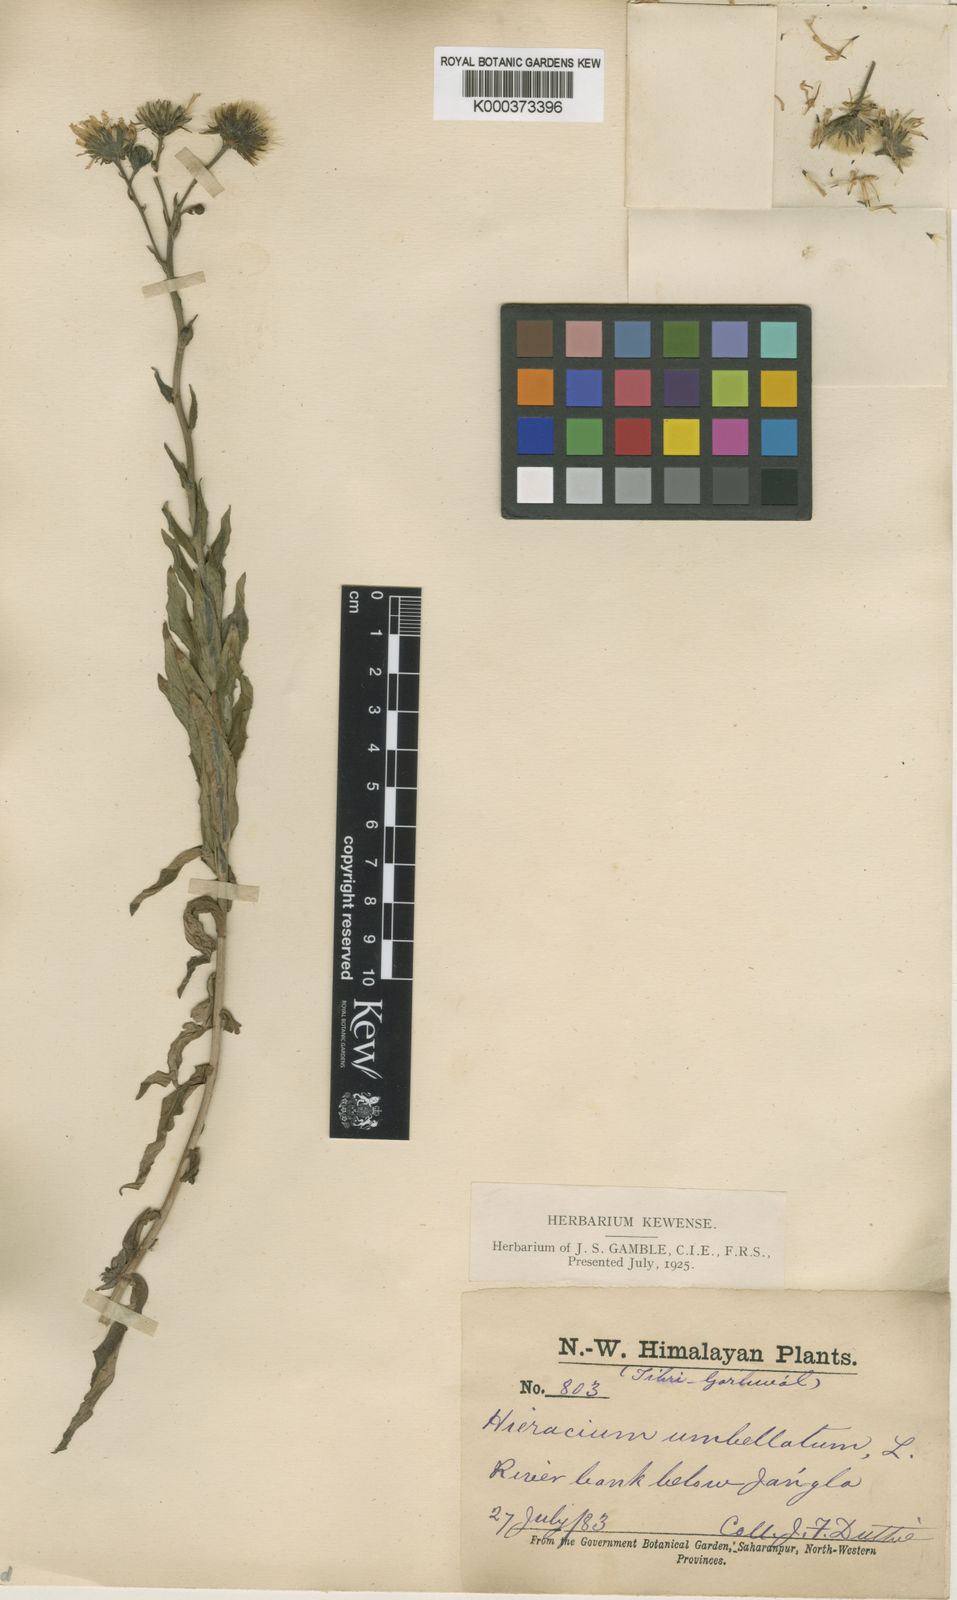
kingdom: Plantae
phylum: Tracheophyta
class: Magnoliopsida
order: Asterales
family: Asteraceae
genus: Hieracium
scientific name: Hieracium umbellatum
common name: Northern hawkweed
